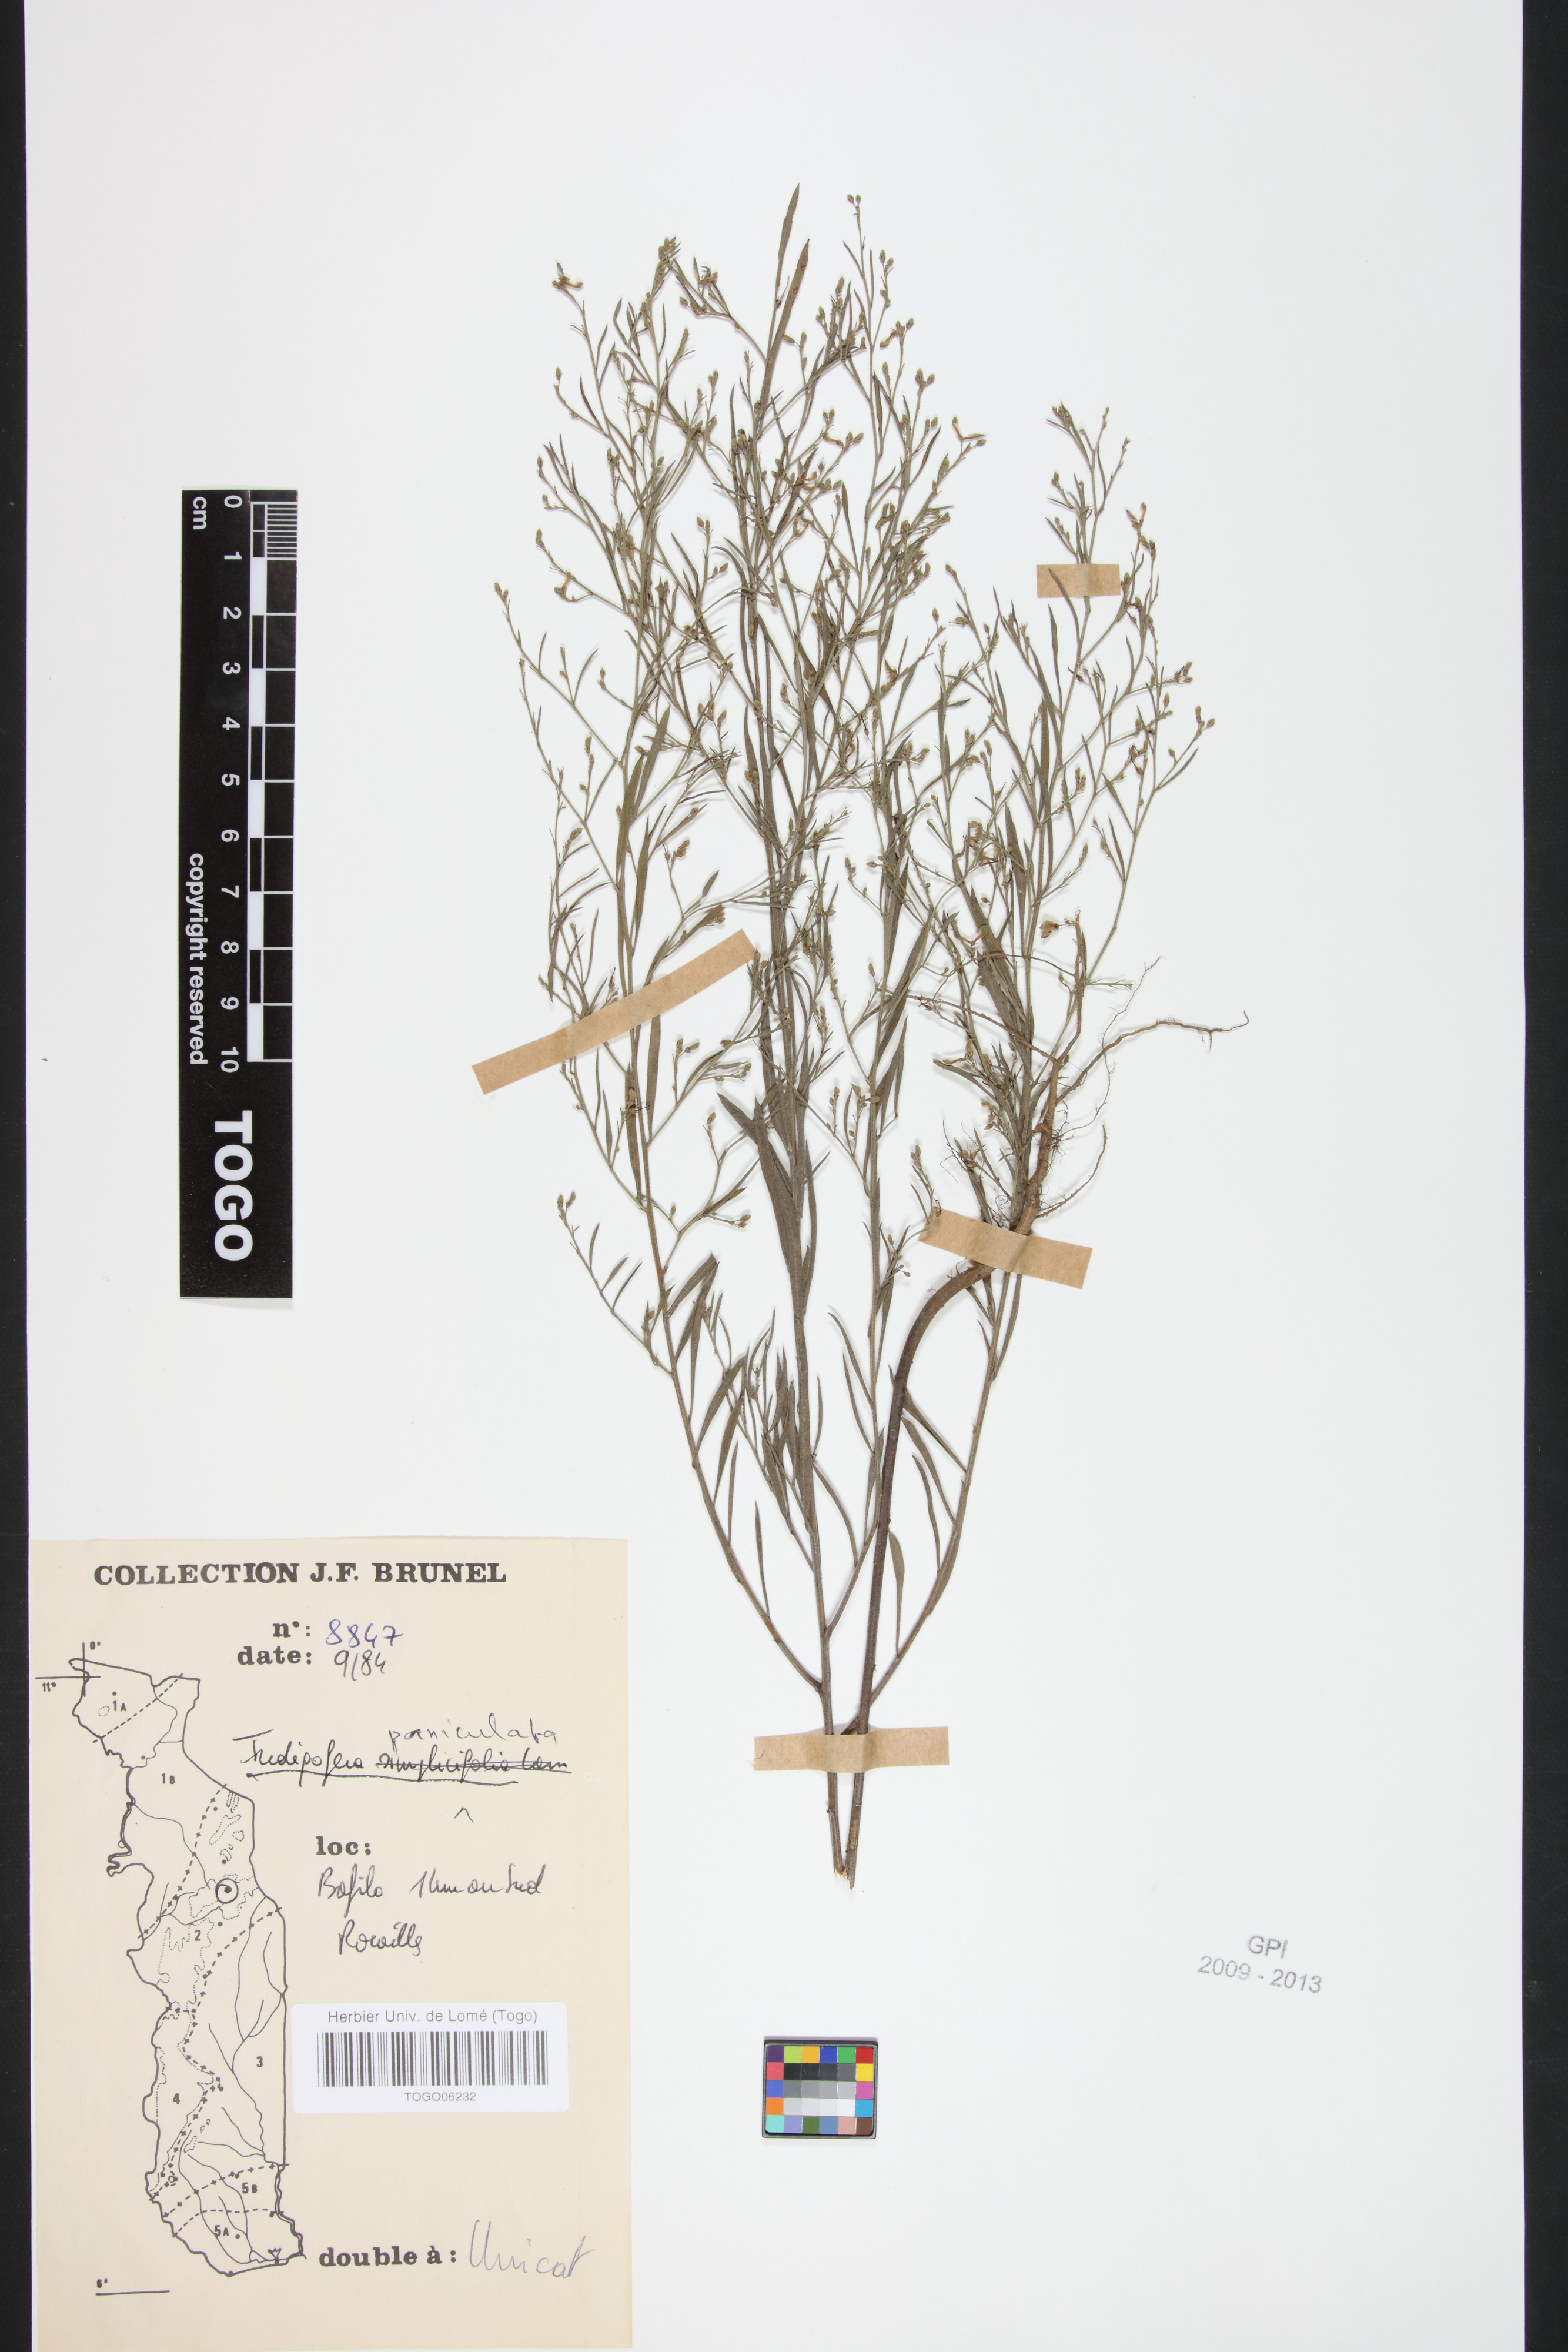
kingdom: Plantae
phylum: Tracheophyta
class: Magnoliopsida
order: Fabales
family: Fabaceae
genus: Indigofera
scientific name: Indigofera paniculata
